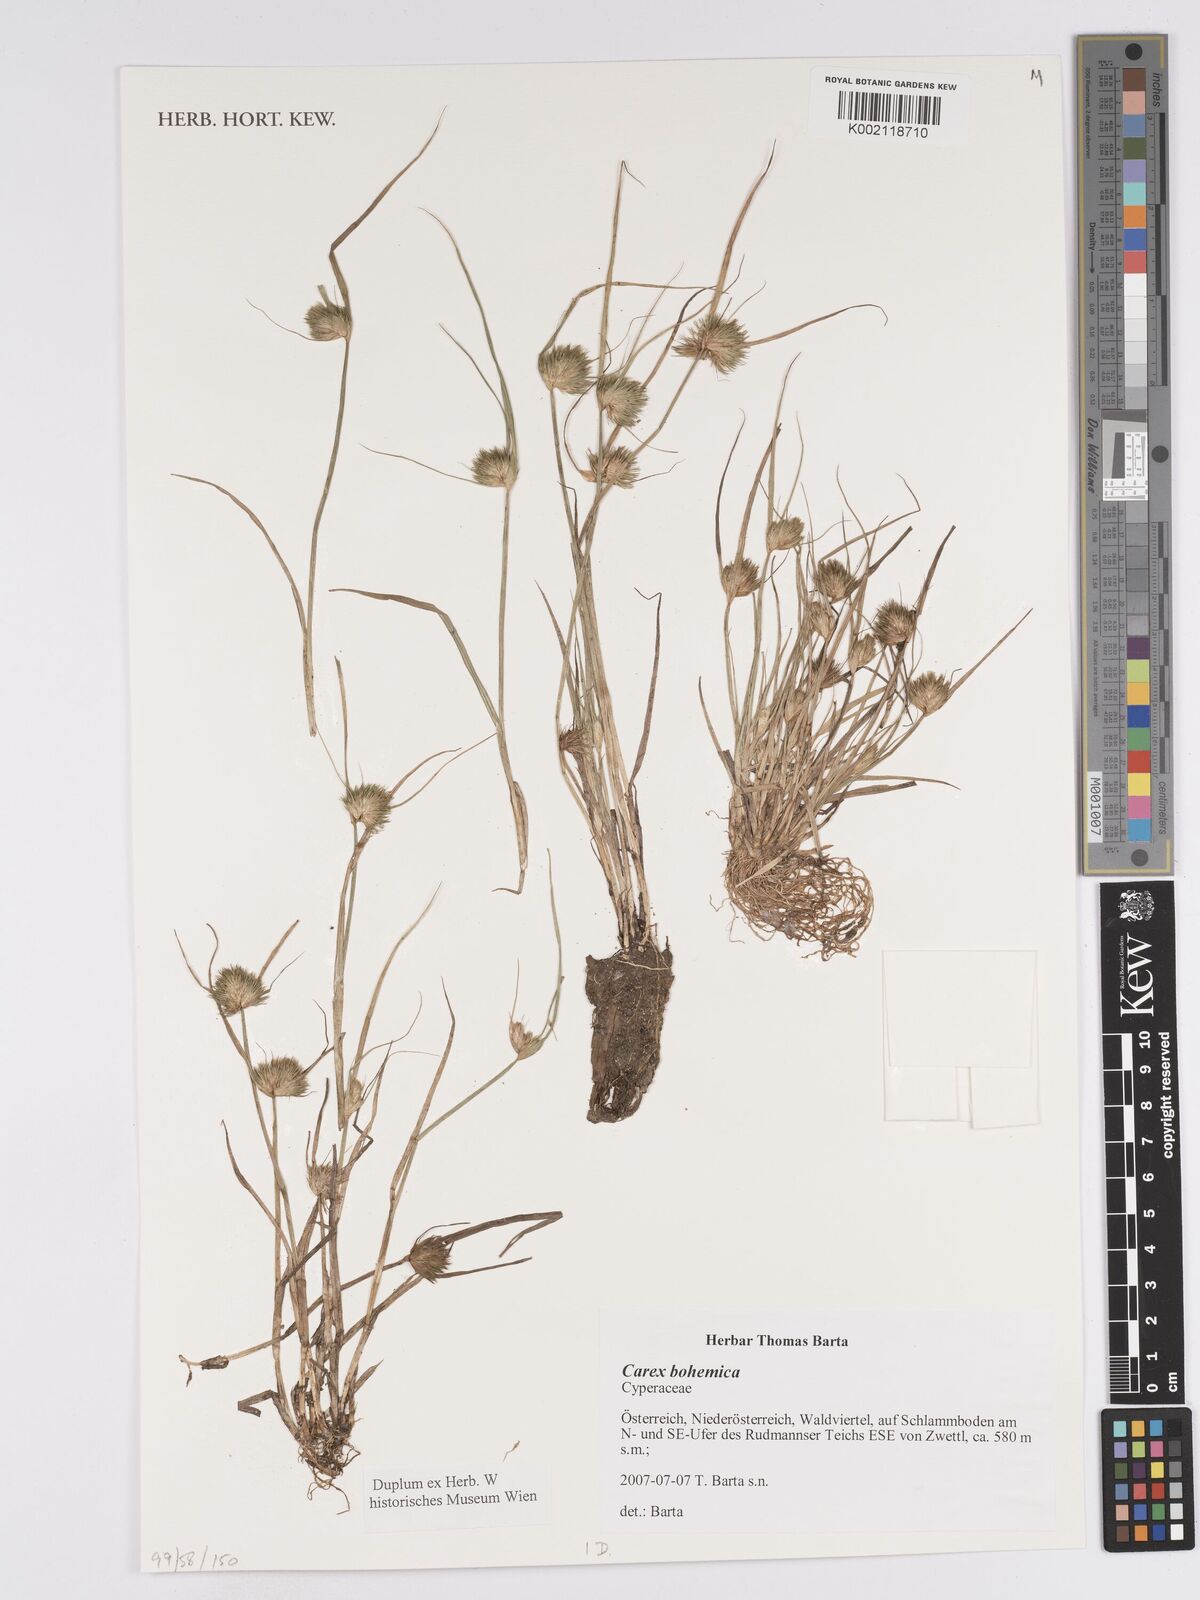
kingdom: Plantae
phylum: Tracheophyta
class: Liliopsida
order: Poales
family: Cyperaceae
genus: Carex
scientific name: Carex bohemica
